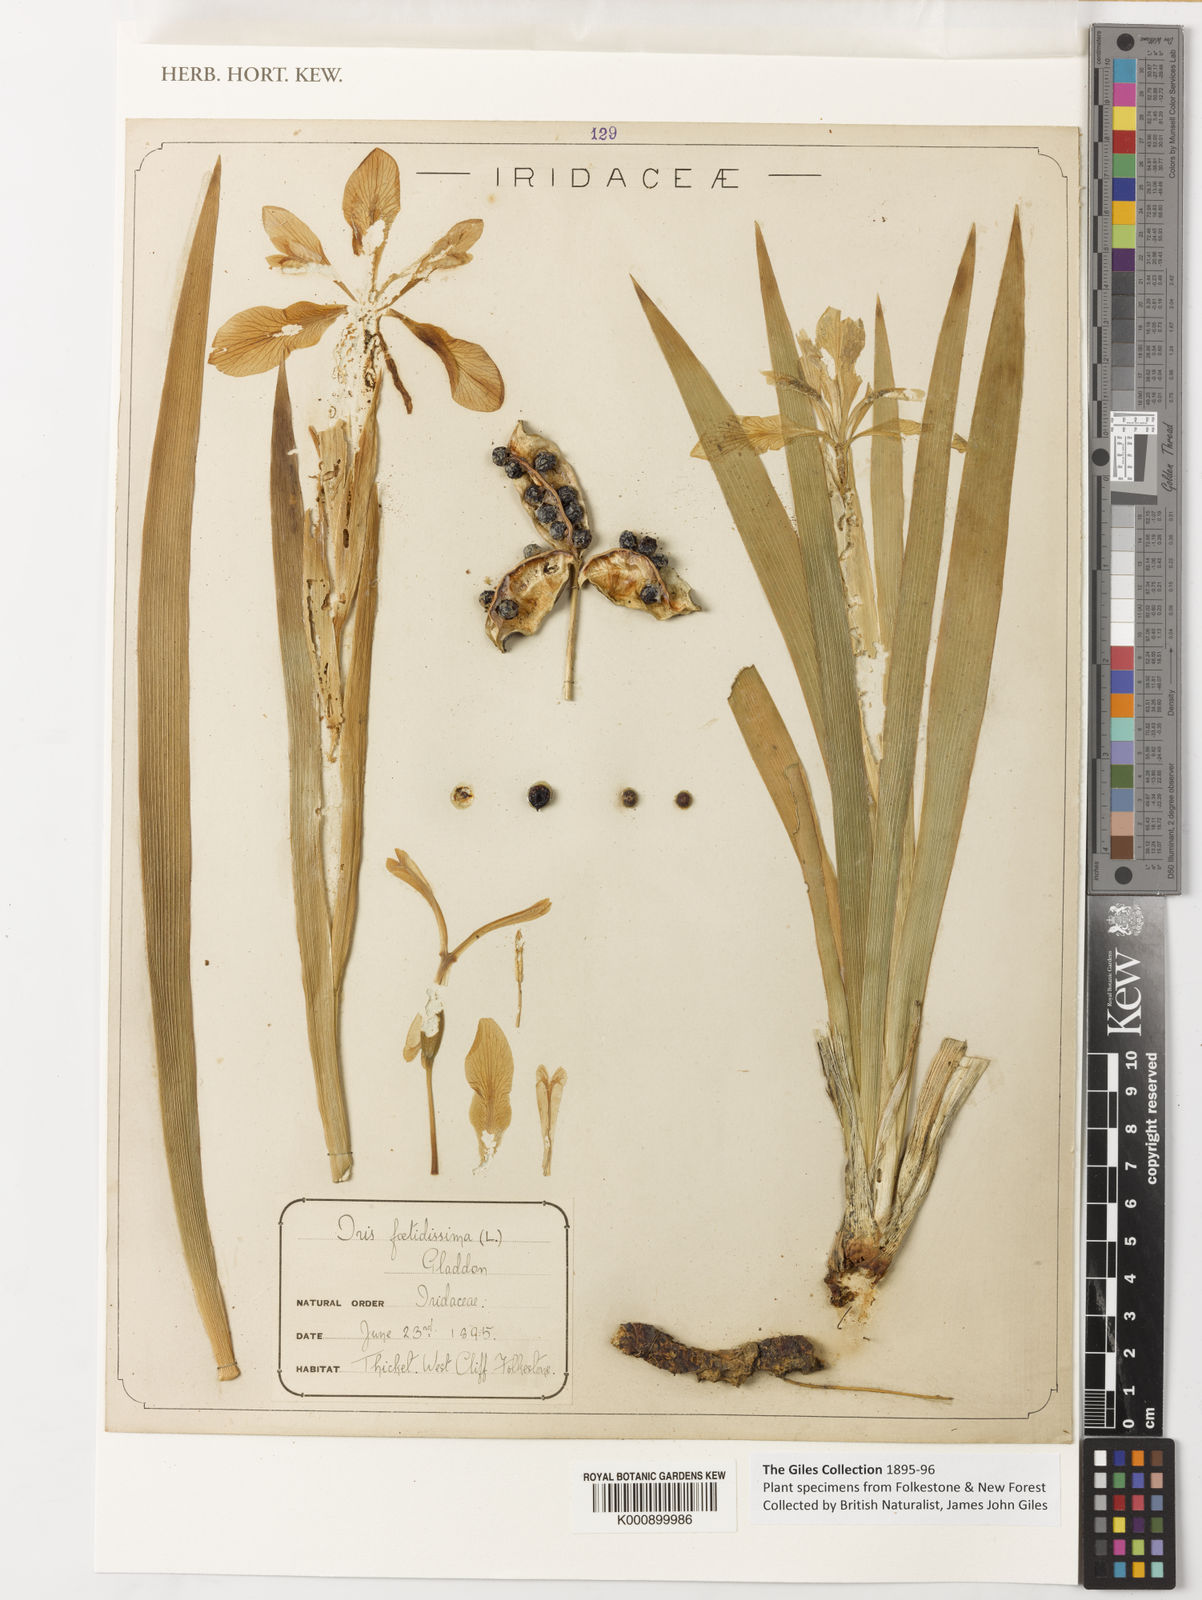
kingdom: Plantae
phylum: Tracheophyta
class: Liliopsida
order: Asparagales
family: Iridaceae
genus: Iris
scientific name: Iris
